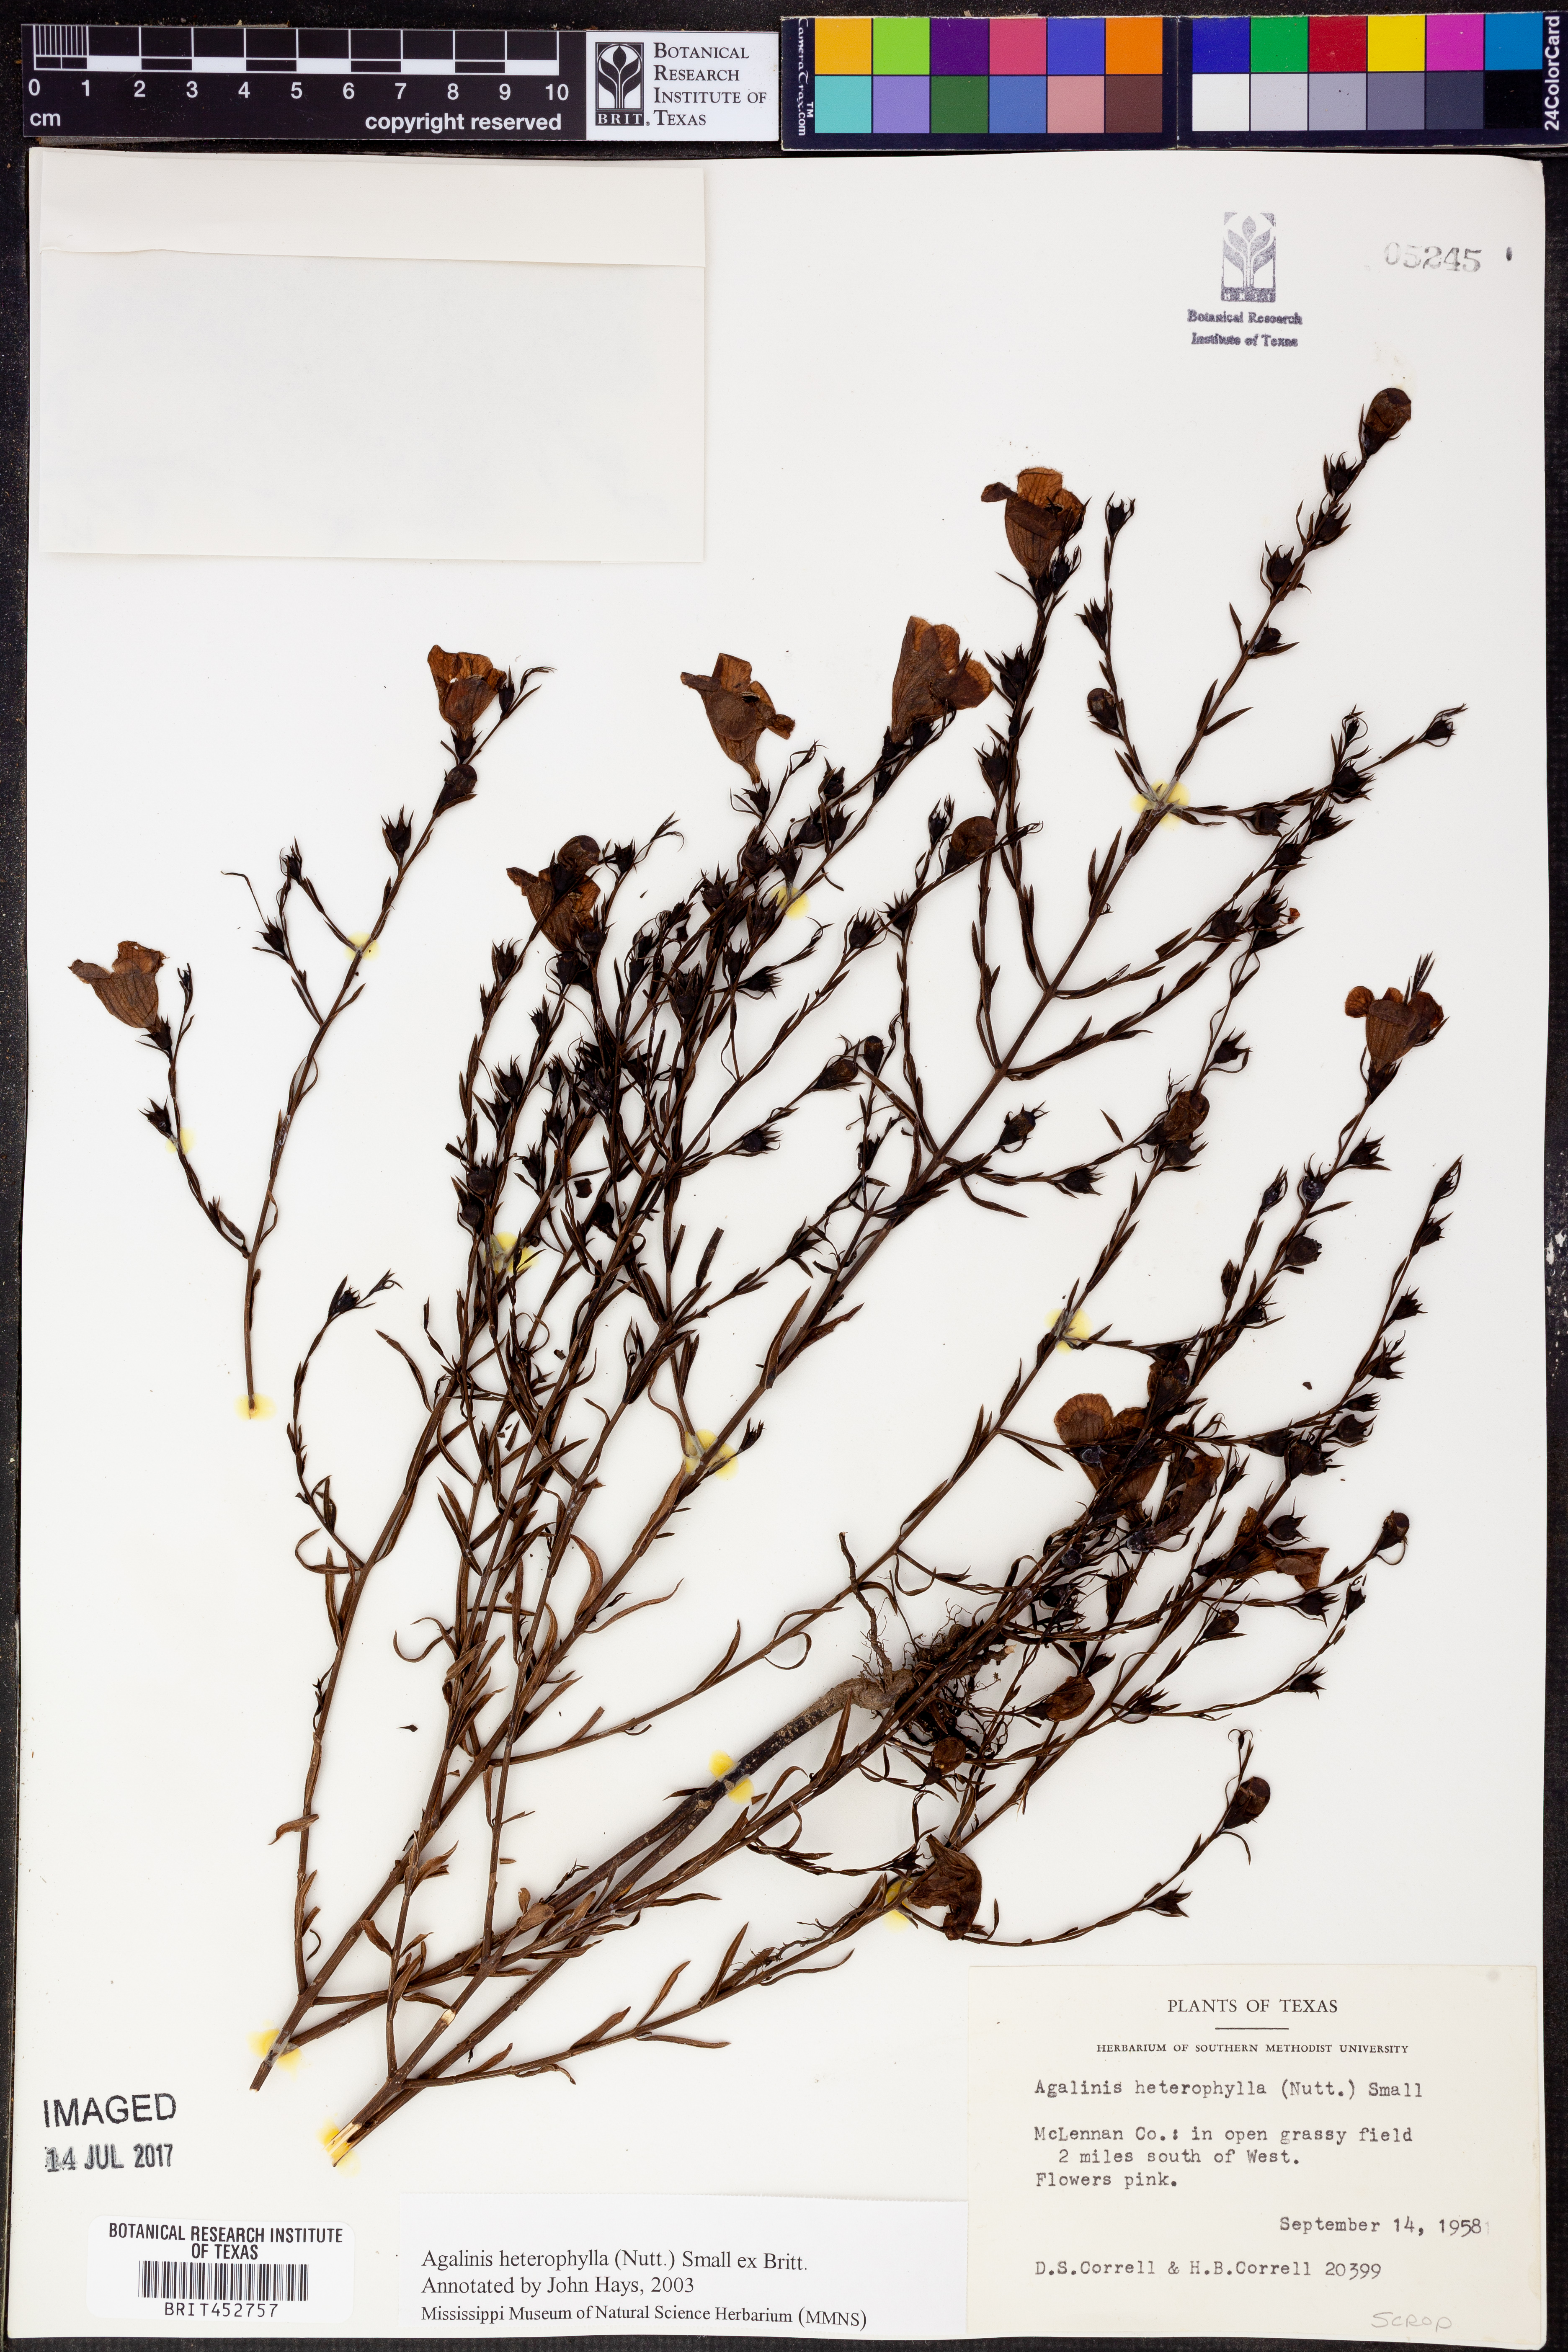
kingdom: Plantae
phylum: Tracheophyta
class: Magnoliopsida
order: Lamiales
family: Orobanchaceae
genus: Agalinis
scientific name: Agalinis heterophylla
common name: Prairie agalinis
